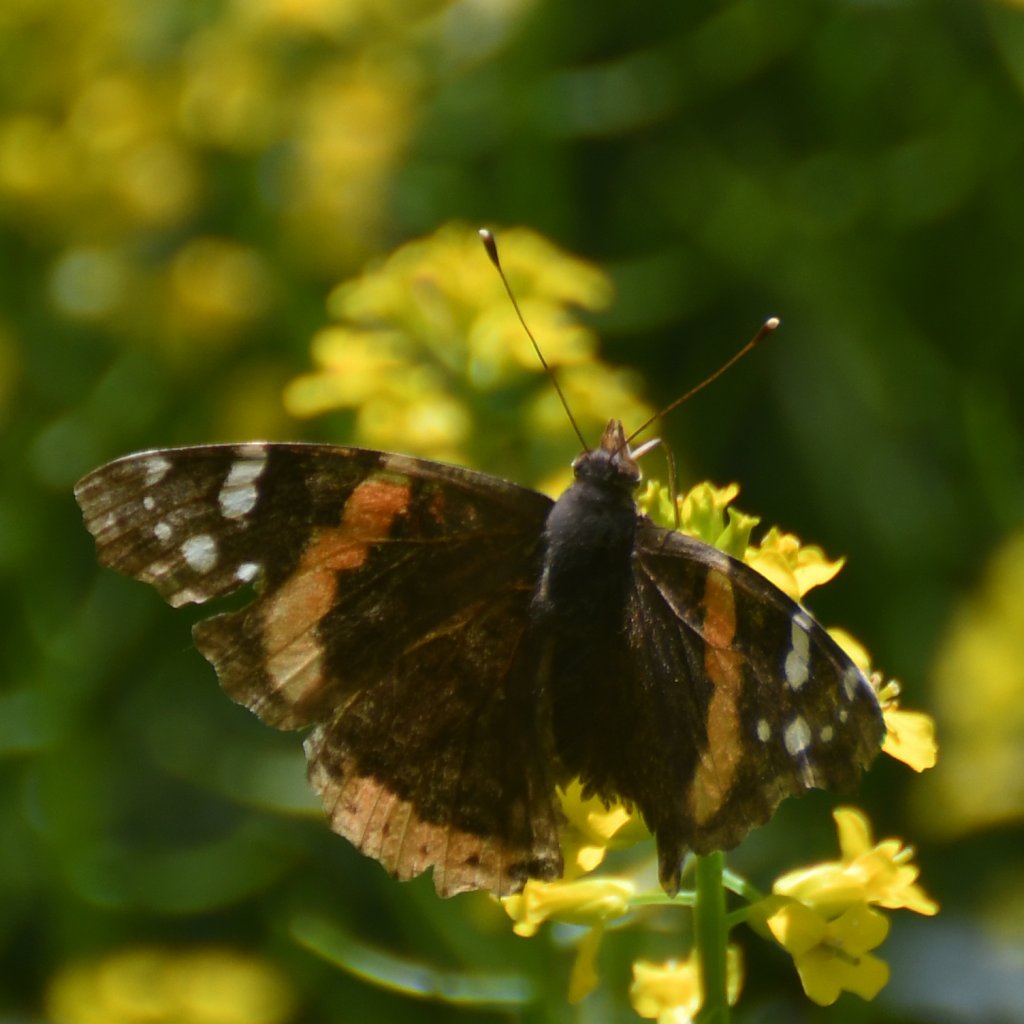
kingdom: Animalia
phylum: Arthropoda
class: Insecta
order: Lepidoptera
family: Nymphalidae
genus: Vanessa
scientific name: Vanessa atalanta
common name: Red Admiral
